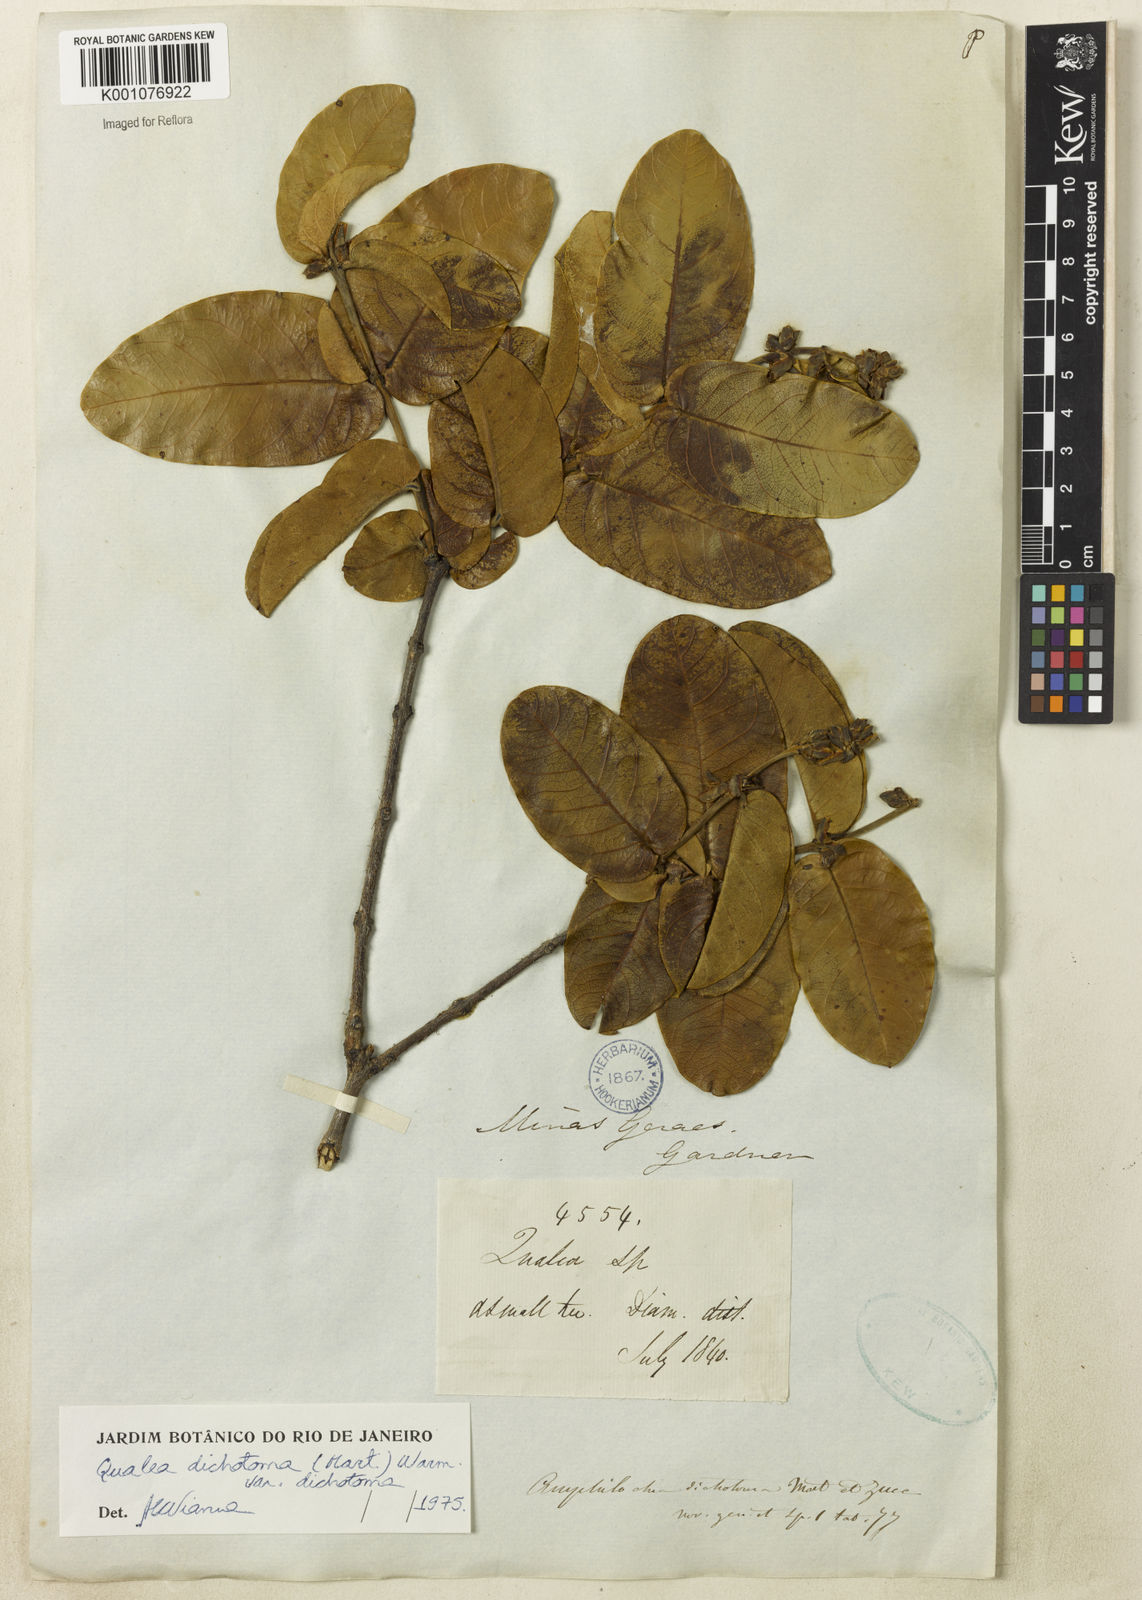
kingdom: Plantae
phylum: Tracheophyta
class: Magnoliopsida
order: Myrtales
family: Vochysiaceae
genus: Qualea
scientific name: Qualea
